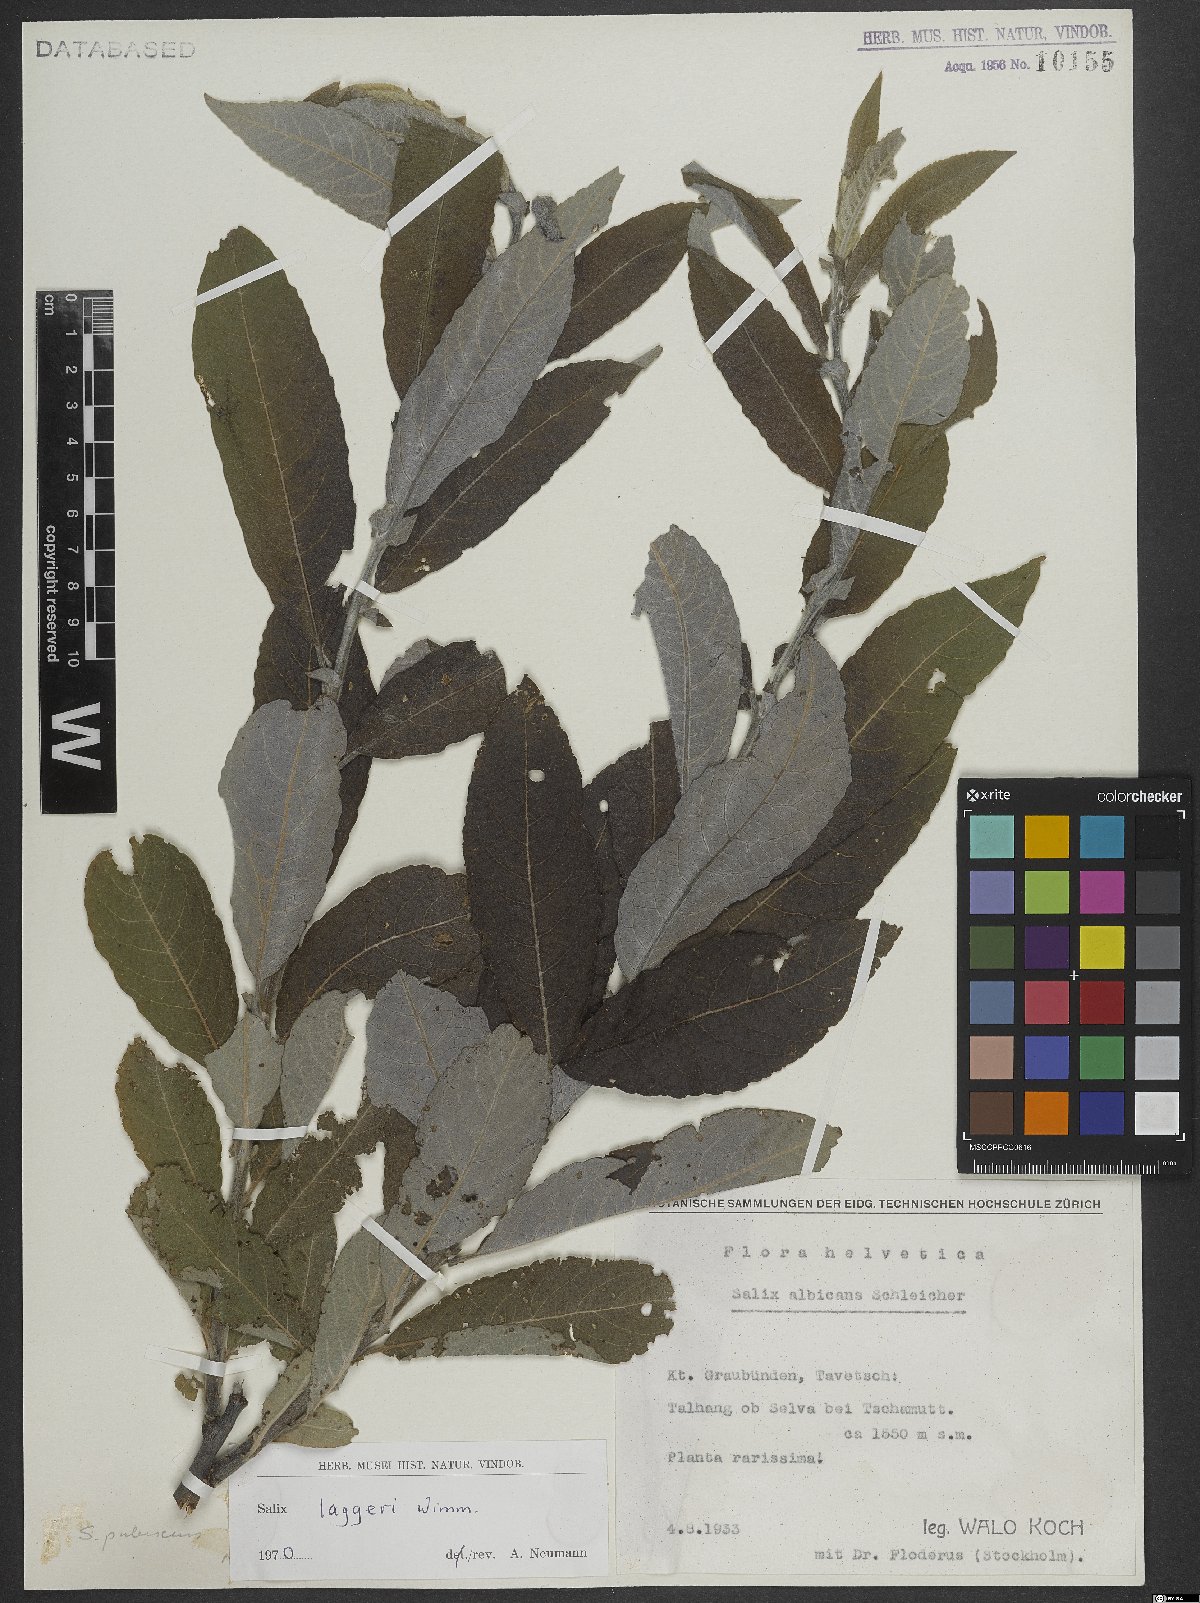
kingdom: Plantae
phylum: Tracheophyta
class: Magnoliopsida
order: Malpighiales
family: Salicaceae
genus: Salix
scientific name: Salix laggeri
